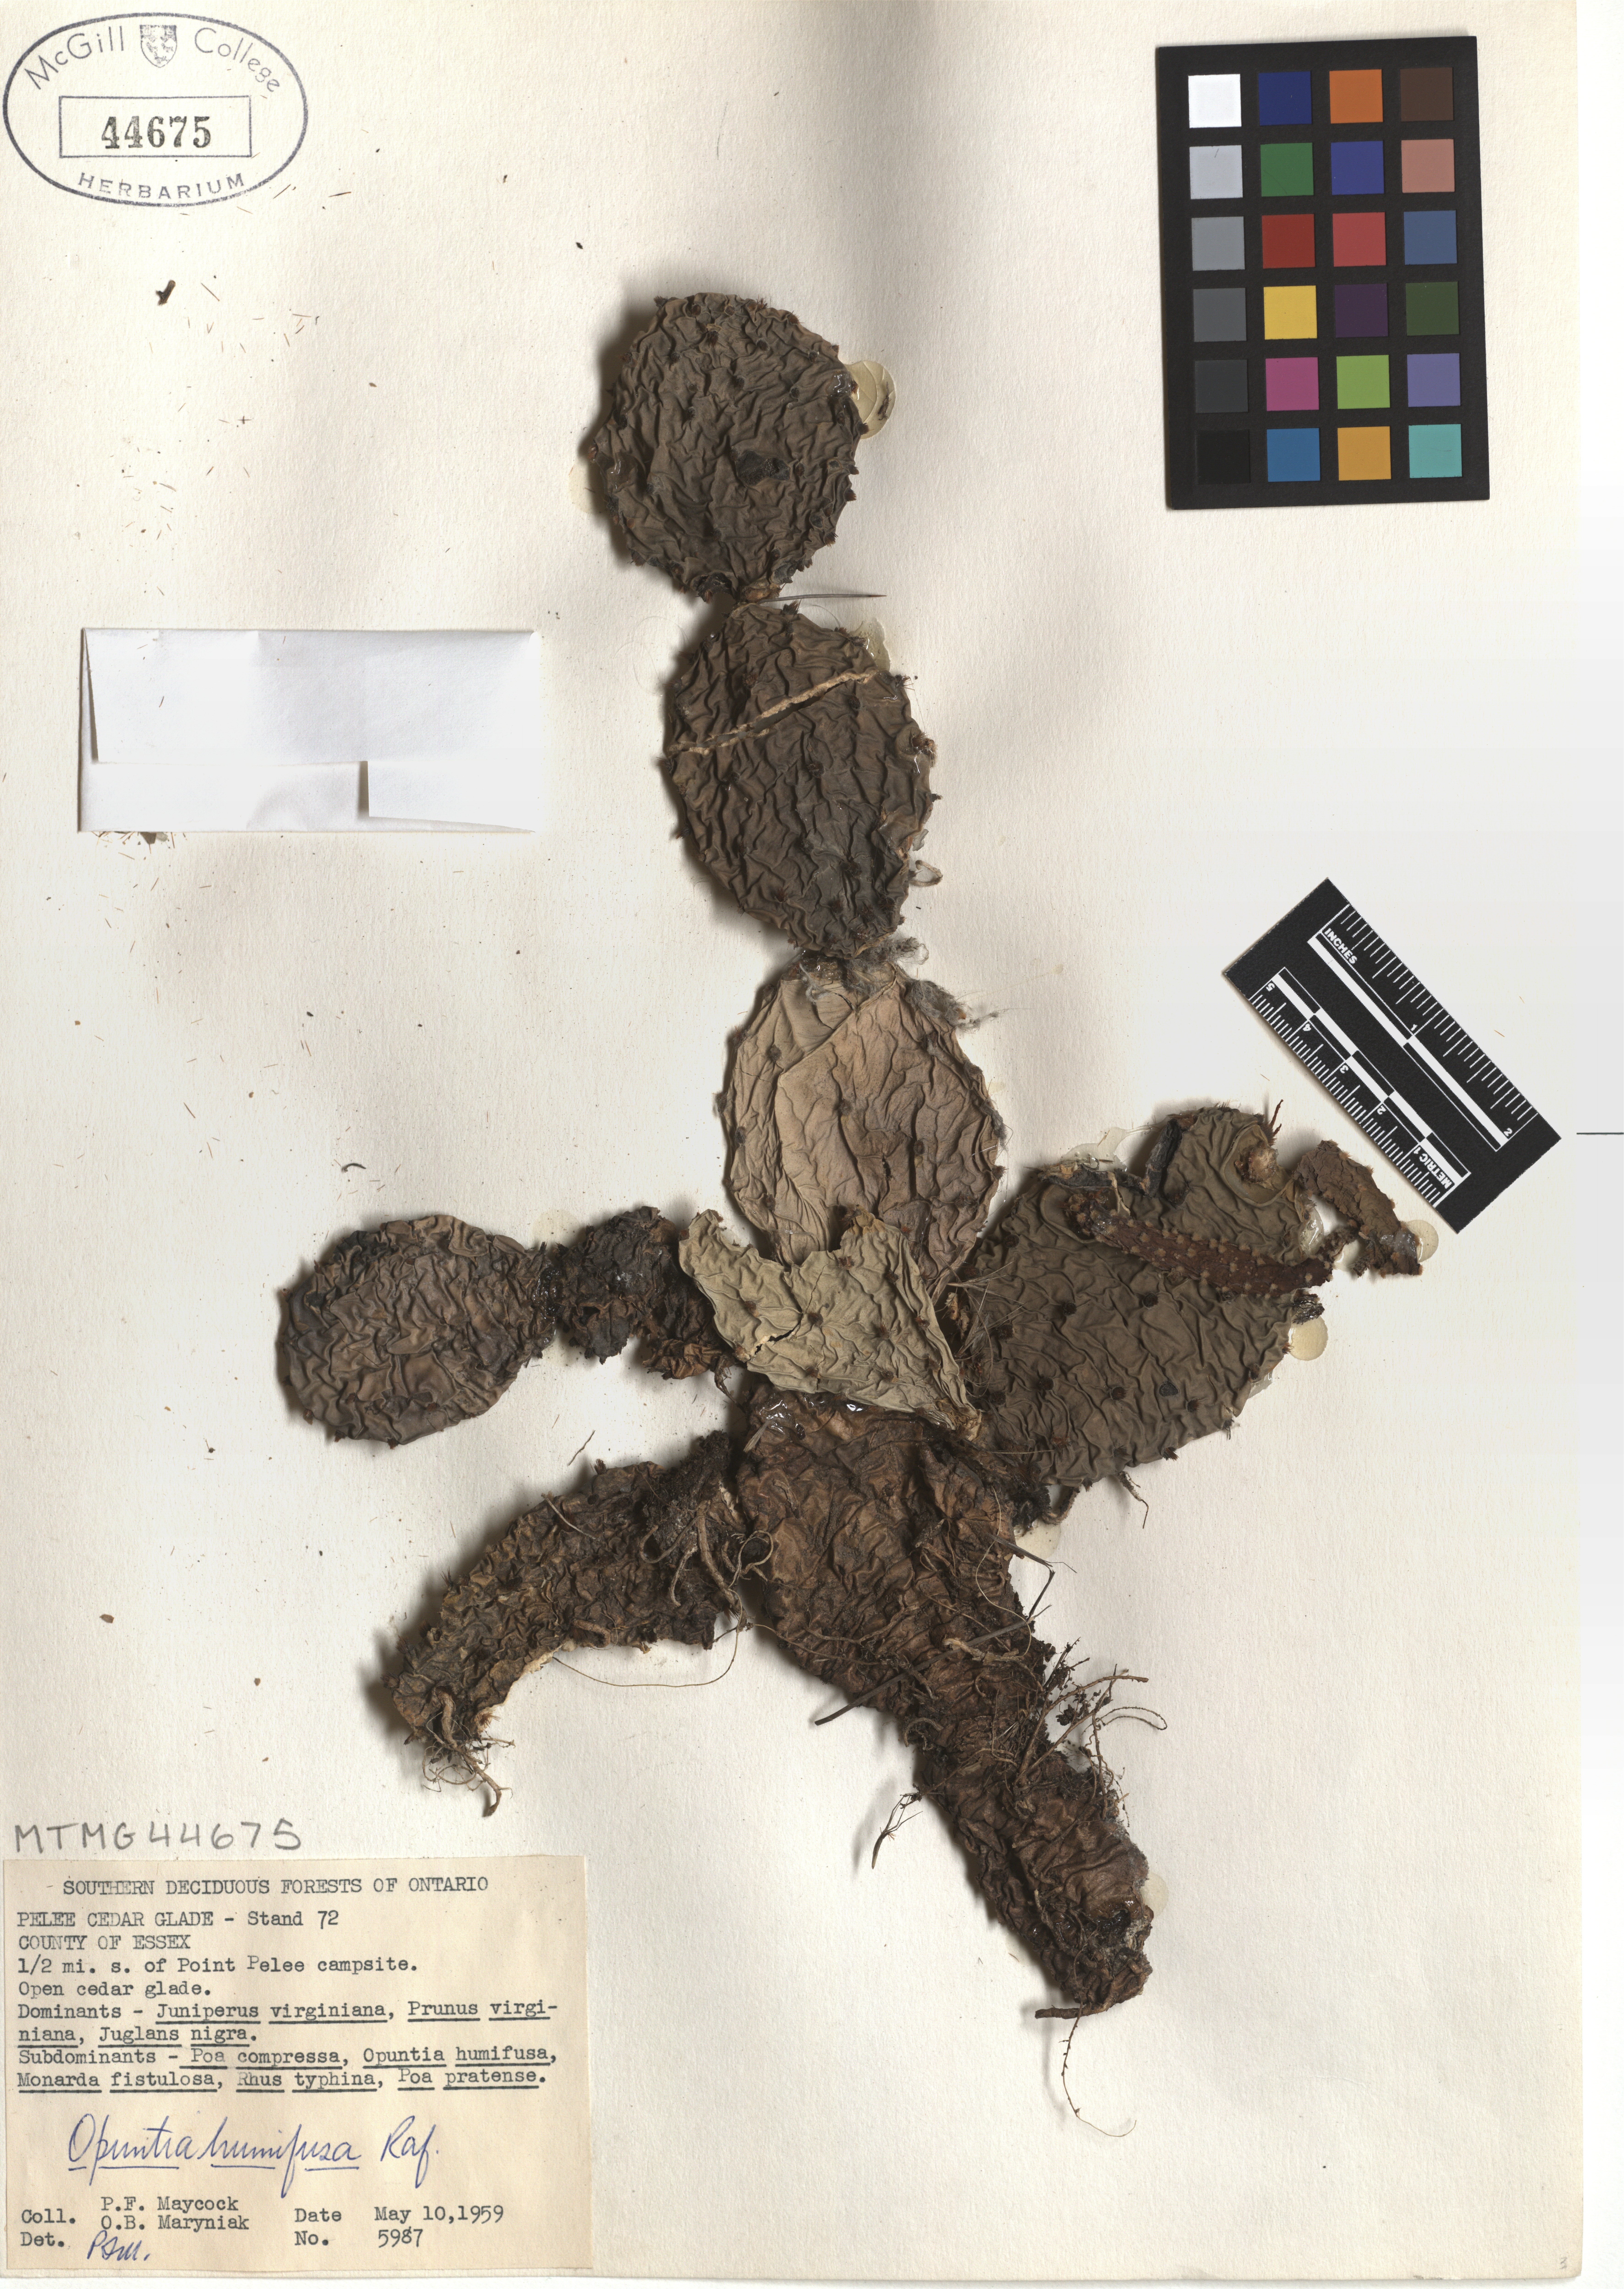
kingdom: Plantae
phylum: Tracheophyta
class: Magnoliopsida
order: Caryophyllales
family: Cactaceae
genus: Opuntia
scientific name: Opuntia humifusa
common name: Eastern prickly-pear
